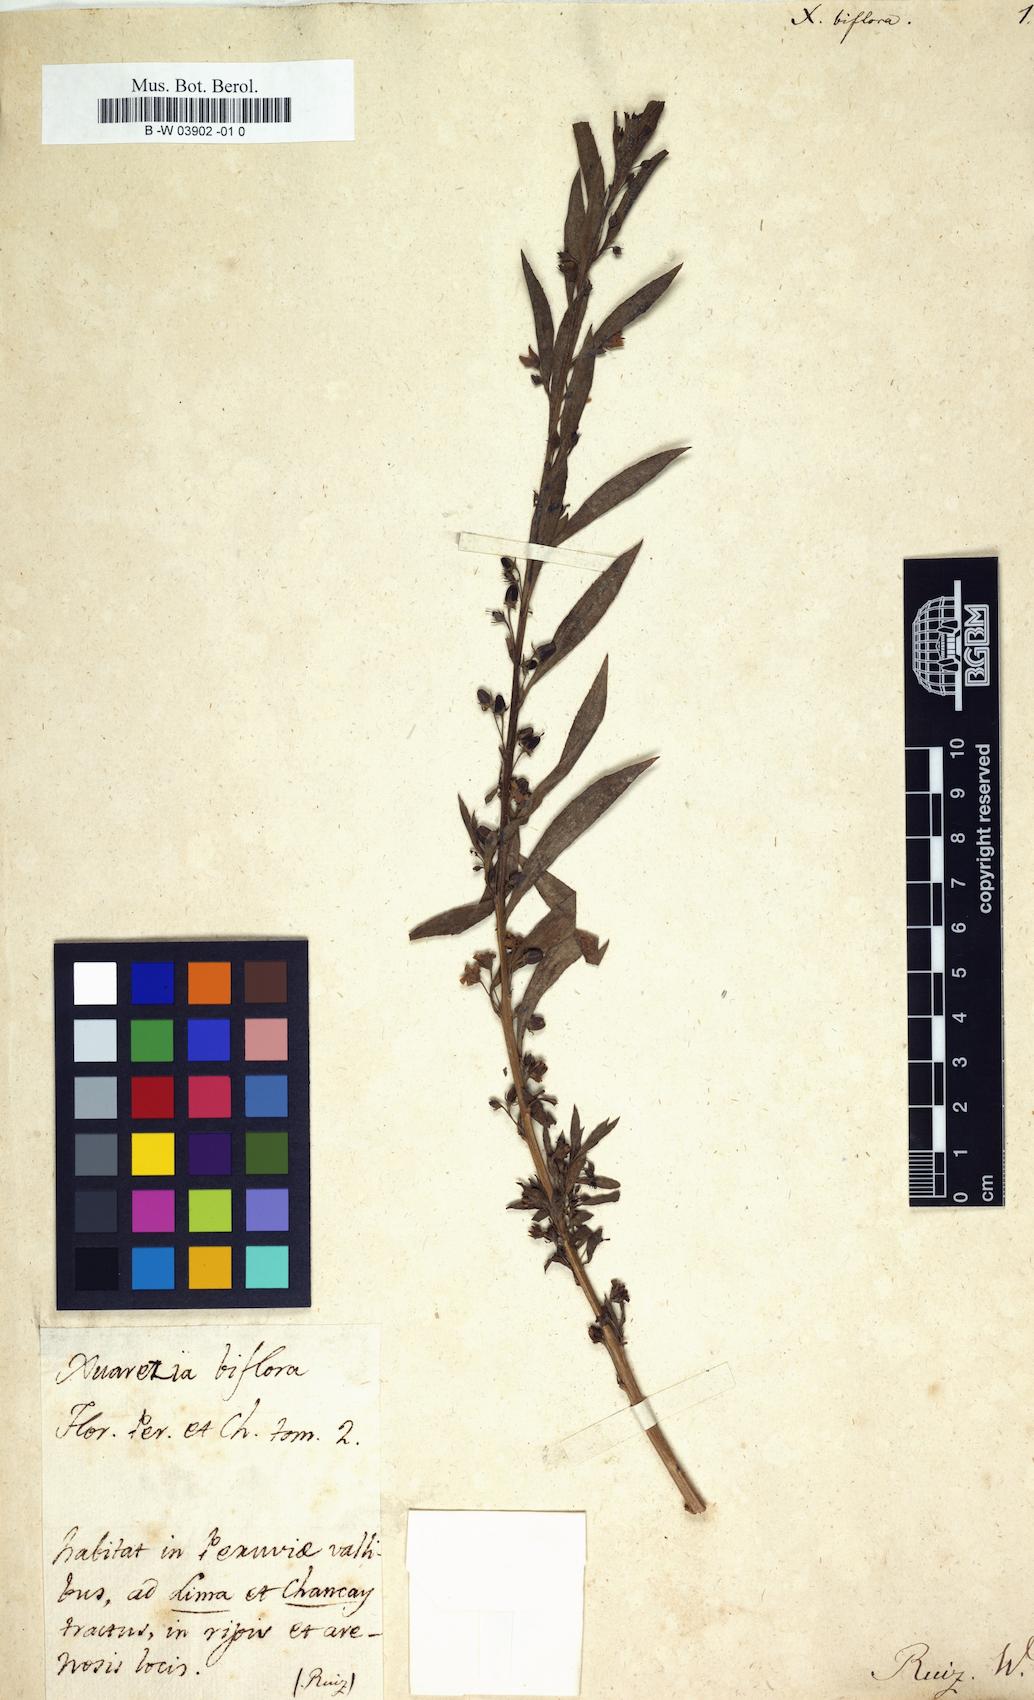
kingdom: Plantae
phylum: Tracheophyta
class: Magnoliopsida
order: Lamiales
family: Scrophulariaceae
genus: Capraria
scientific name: Capraria biflora
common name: Goatweed
